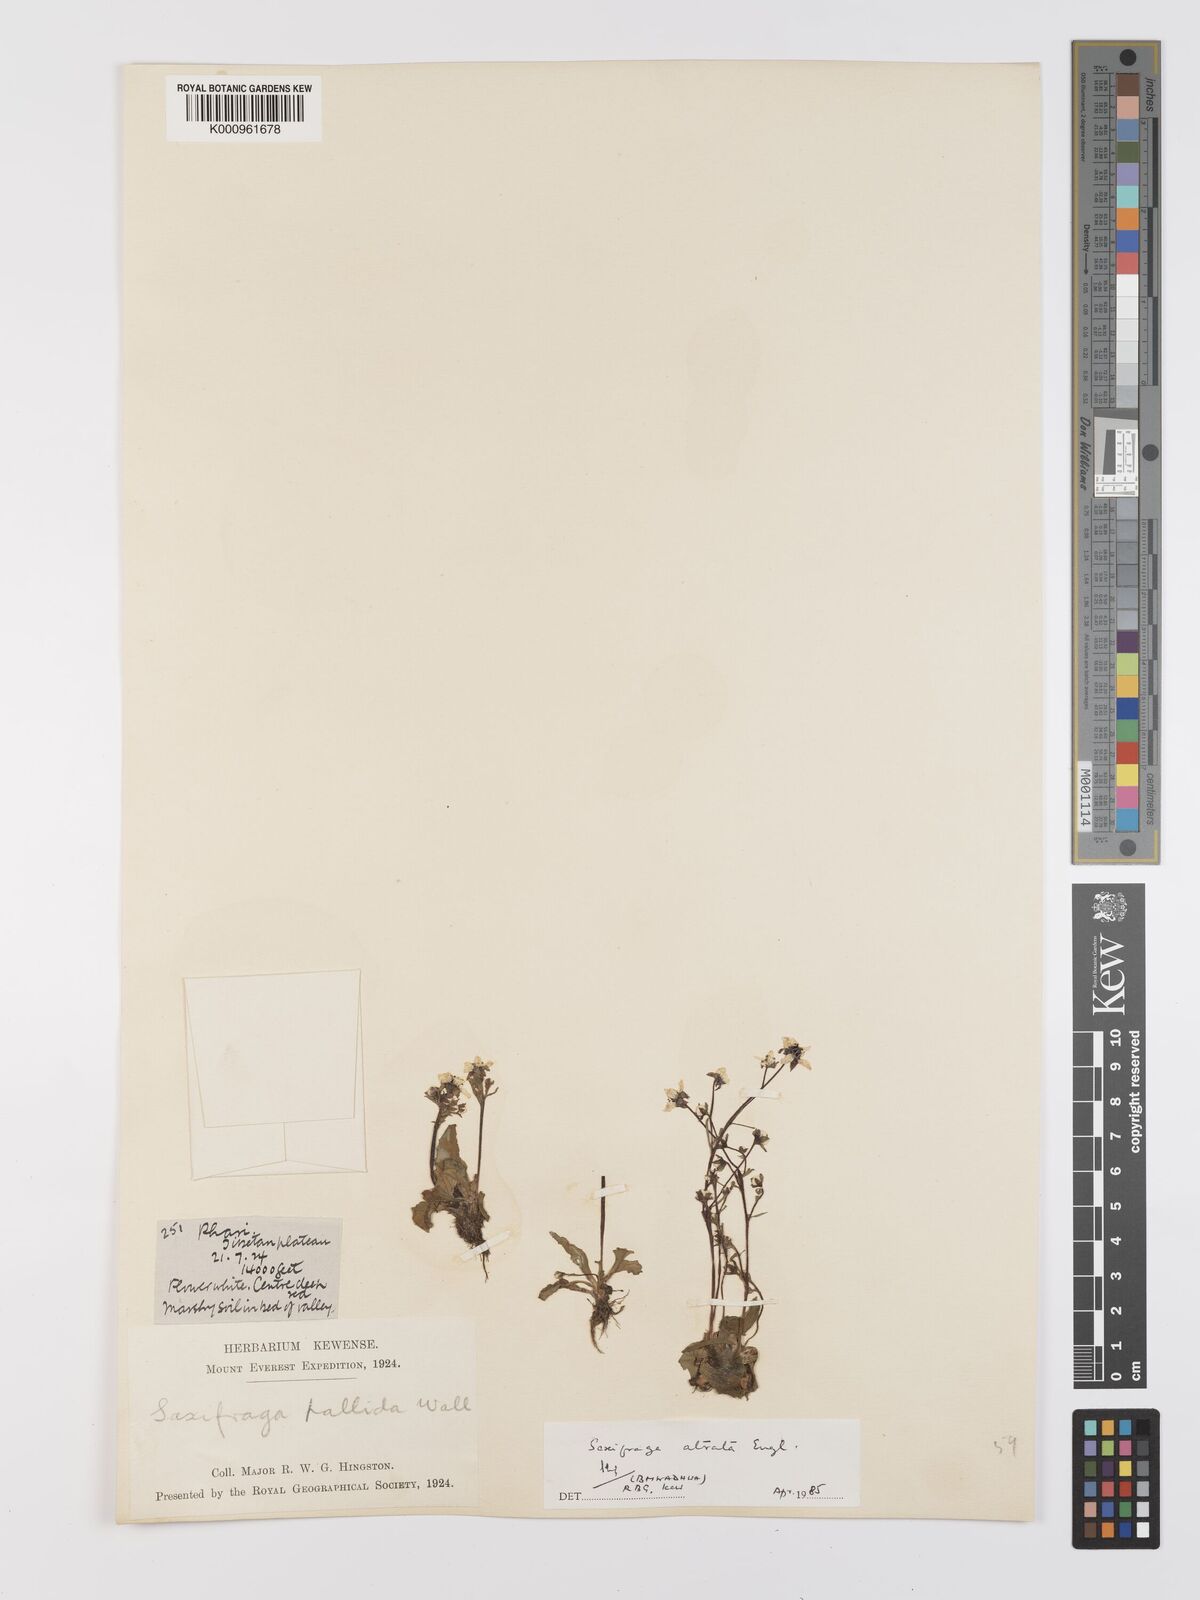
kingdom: Plantae
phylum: Tracheophyta
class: Magnoliopsida
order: Saxifragales
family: Saxifragaceae
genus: Micranthes
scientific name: Micranthes atrata
